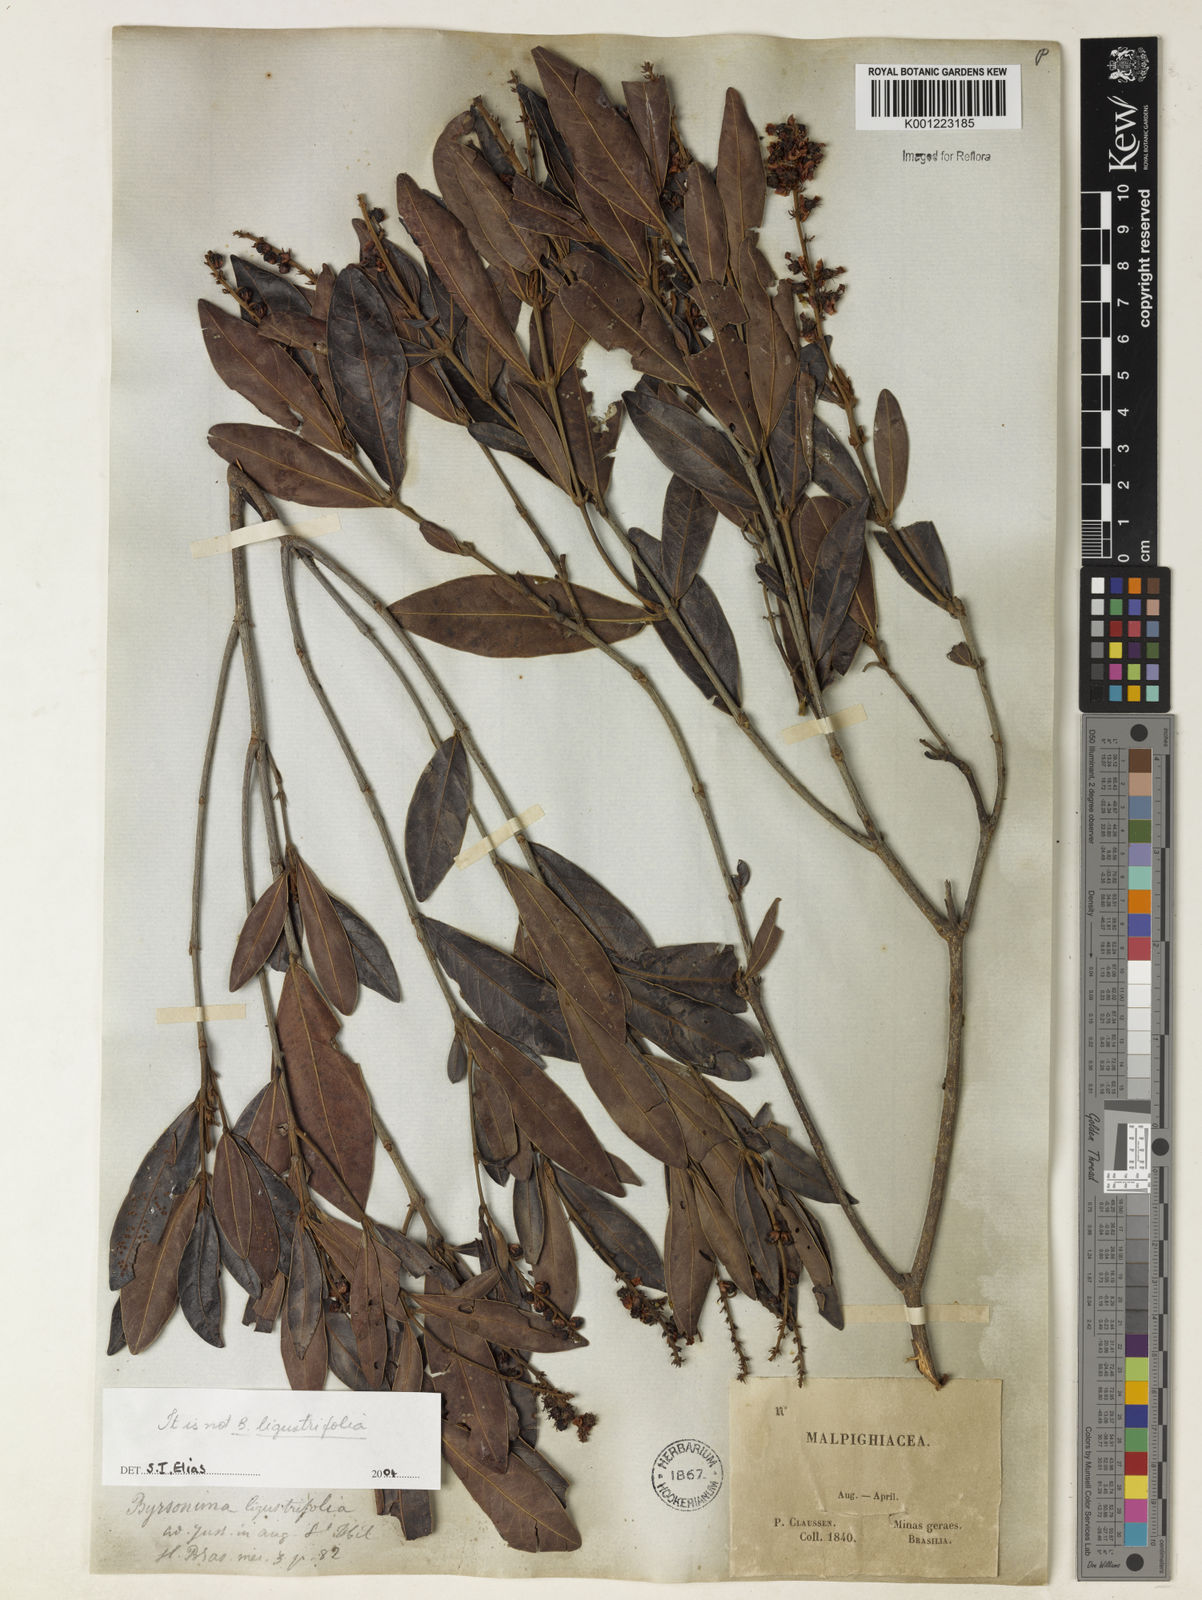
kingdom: Plantae
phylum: Tracheophyta
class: Magnoliopsida
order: Malpighiales
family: Malpighiaceae
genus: Byrsonima
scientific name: Byrsonima
